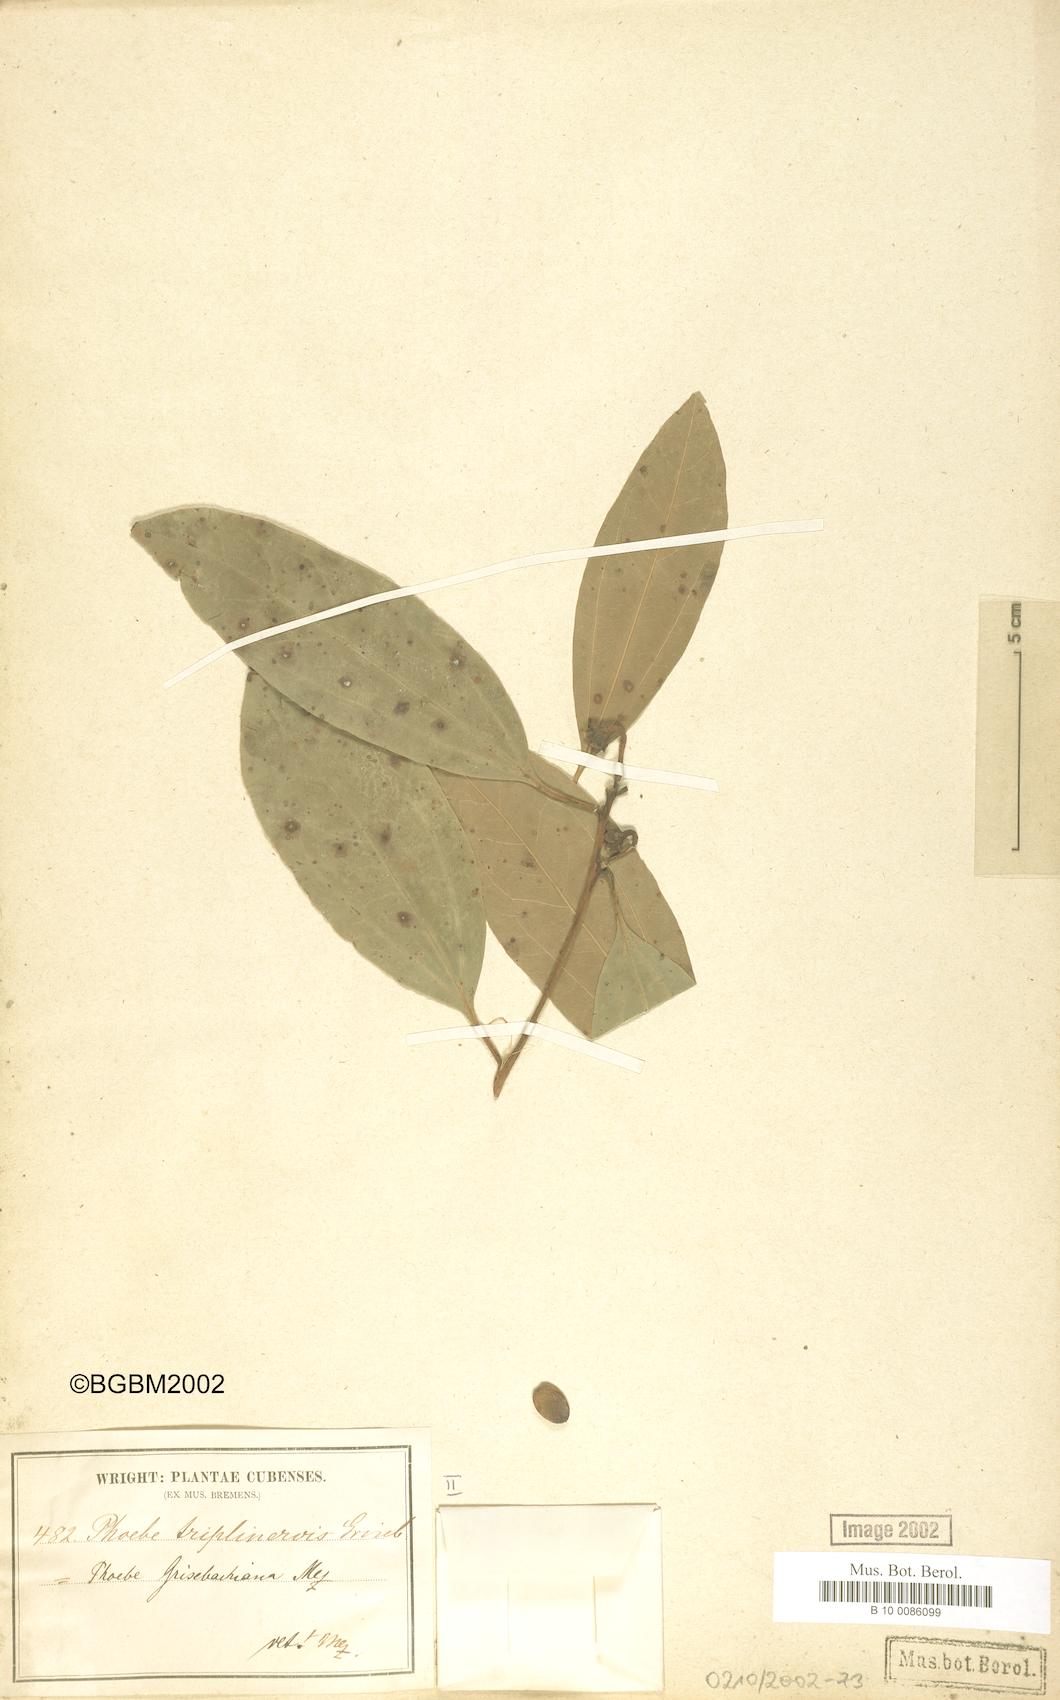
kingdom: Plantae
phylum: Tracheophyta
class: Magnoliopsida
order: Laurales
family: Lauraceae
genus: Aiouea
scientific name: Aiouea grisebachii
